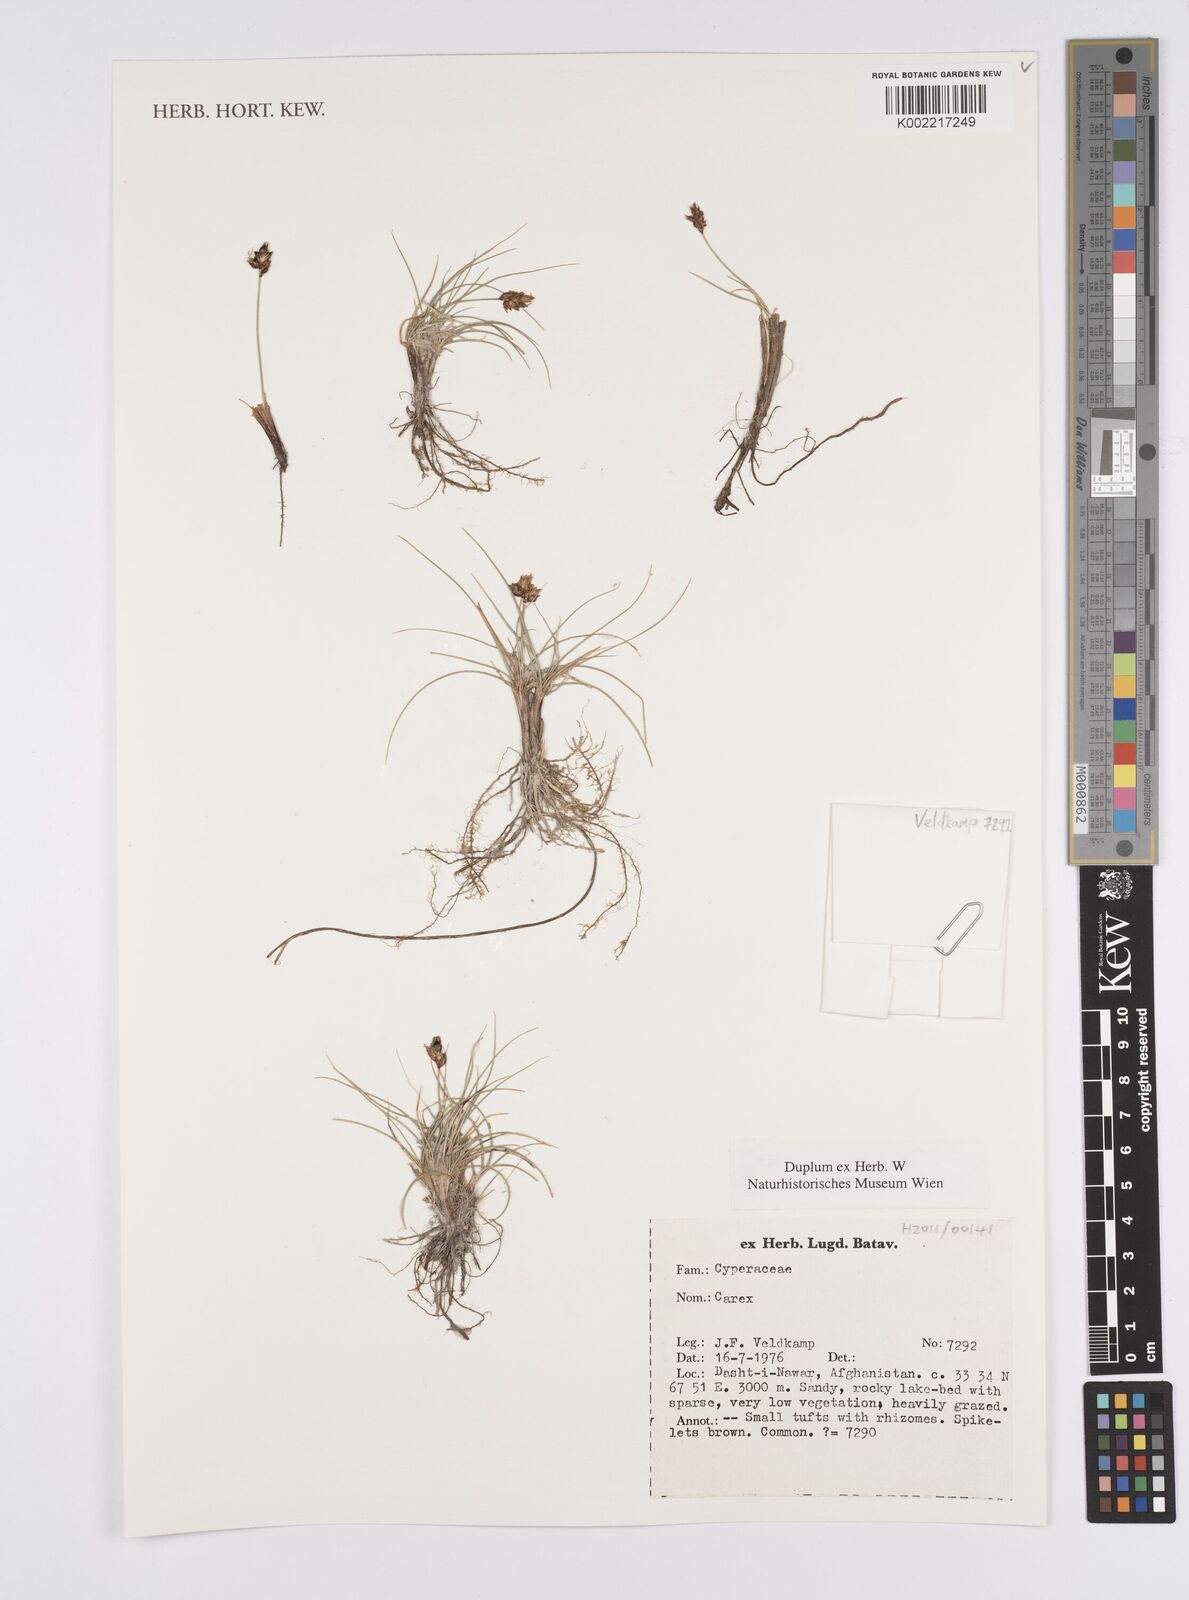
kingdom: Plantae
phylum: Tracheophyta
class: Liliopsida
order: Poales
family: Cyperaceae
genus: Carex
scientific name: Carex
